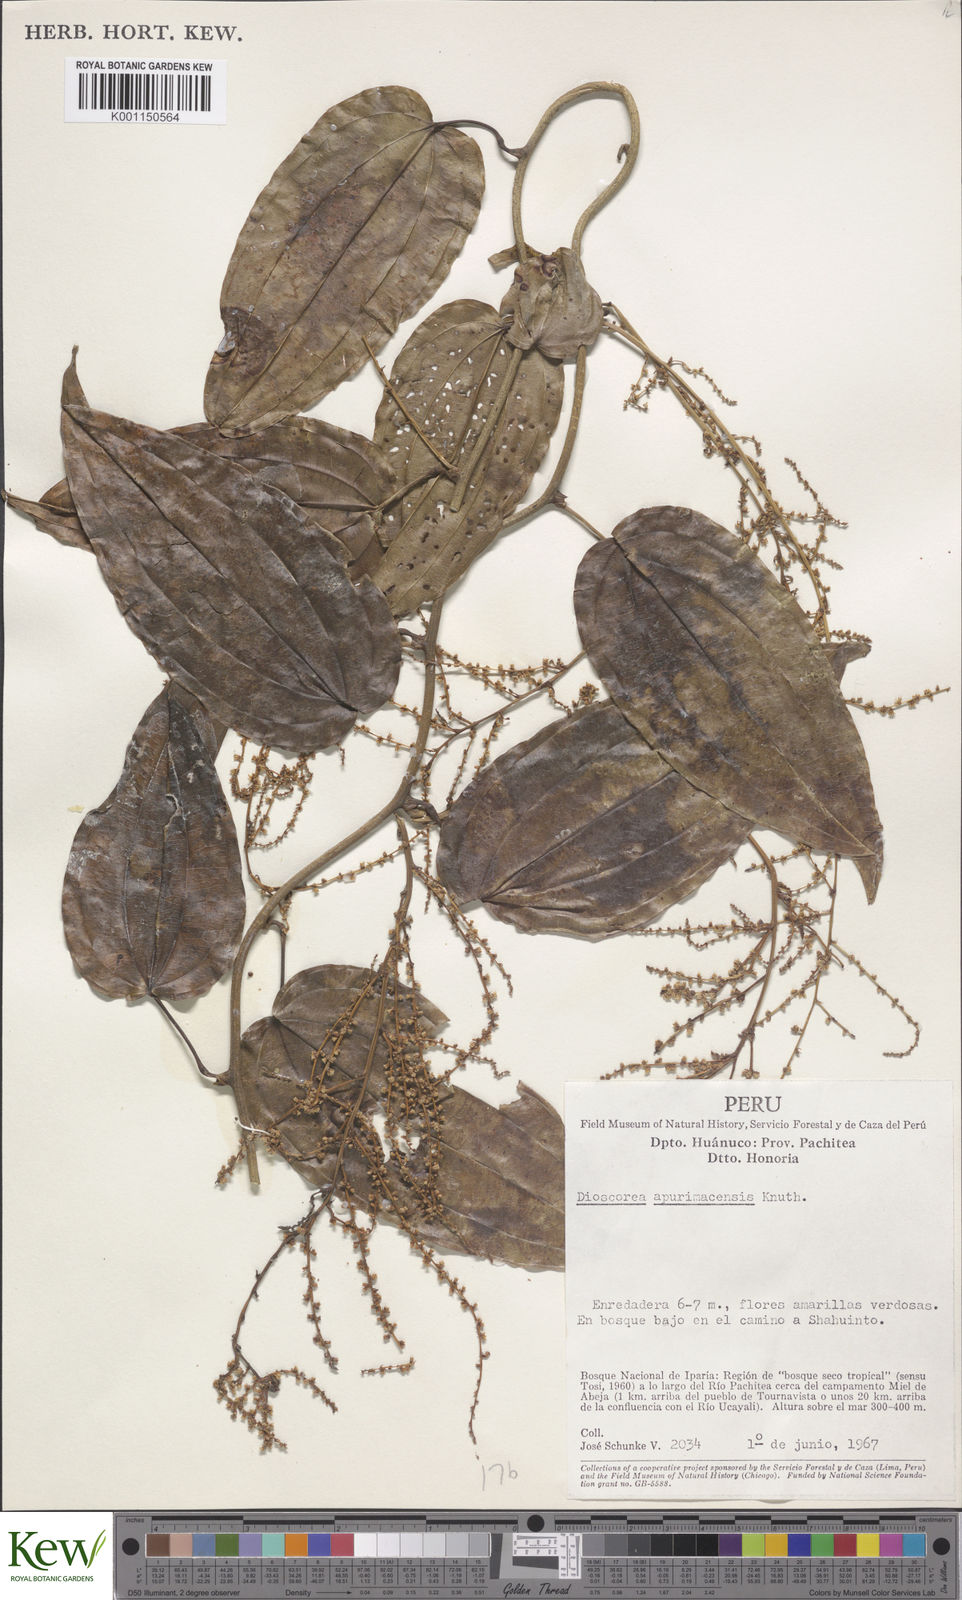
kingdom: Plantae
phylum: Tracheophyta
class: Liliopsida
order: Dioscoreales
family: Dioscoreaceae
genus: Dioscorea
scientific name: Dioscorea acanthogene
